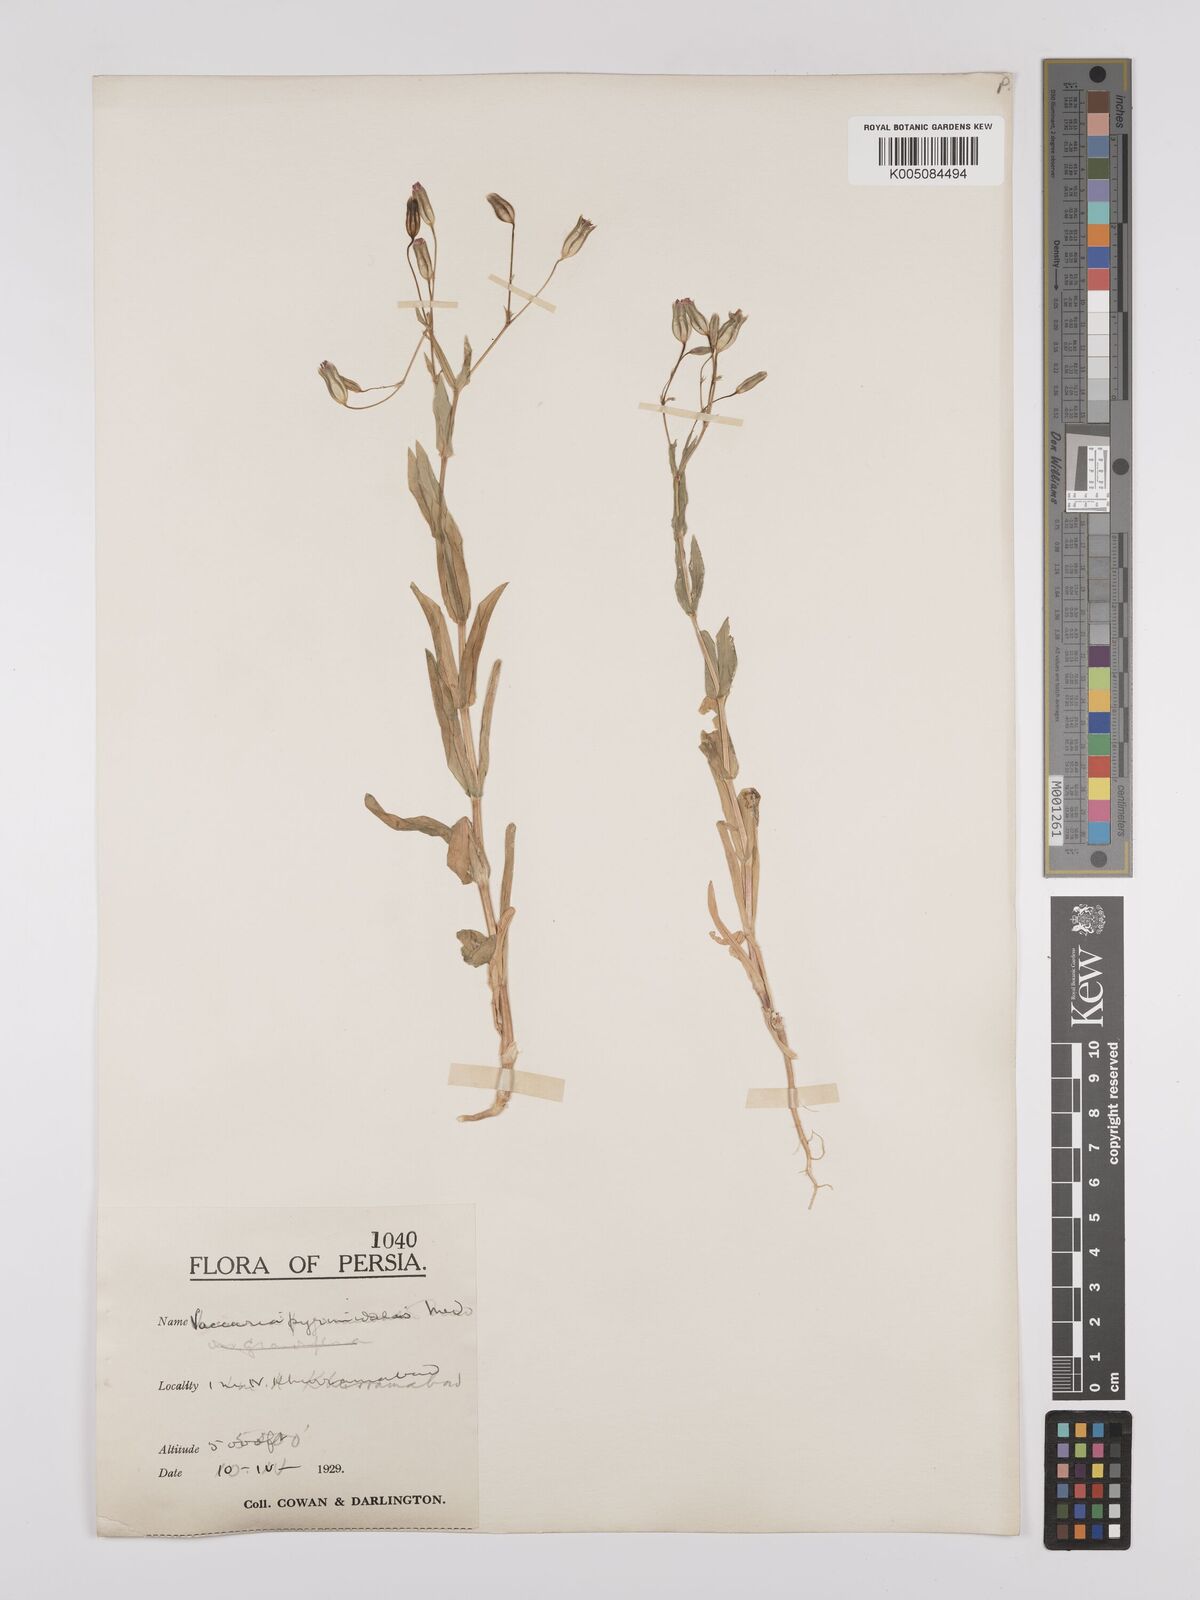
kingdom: Plantae
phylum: Tracheophyta
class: Magnoliopsida
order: Caryophyllales
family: Caryophyllaceae
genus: Gypsophila
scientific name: Gypsophila vaccaria
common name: Cow soapwort
